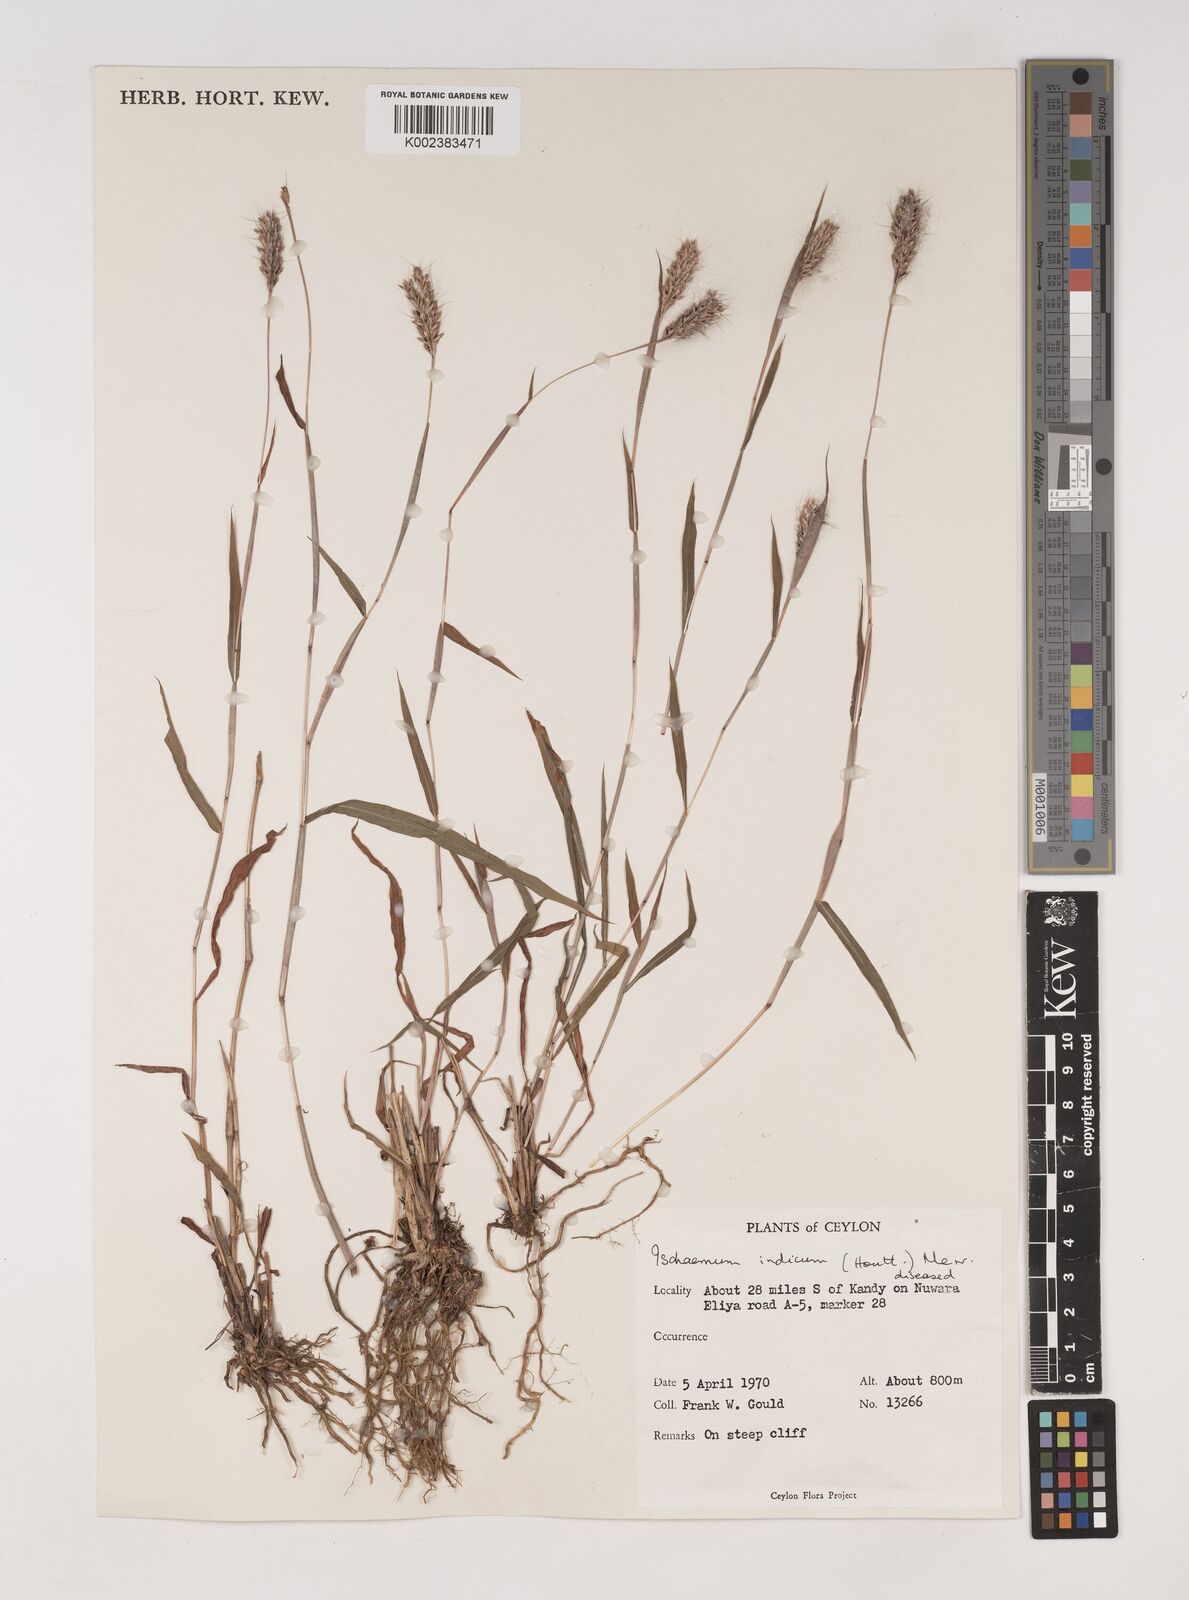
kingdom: Plantae
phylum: Tracheophyta
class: Liliopsida
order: Poales
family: Poaceae
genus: Polytrias
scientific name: Polytrias indica
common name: Indian murainagrass
